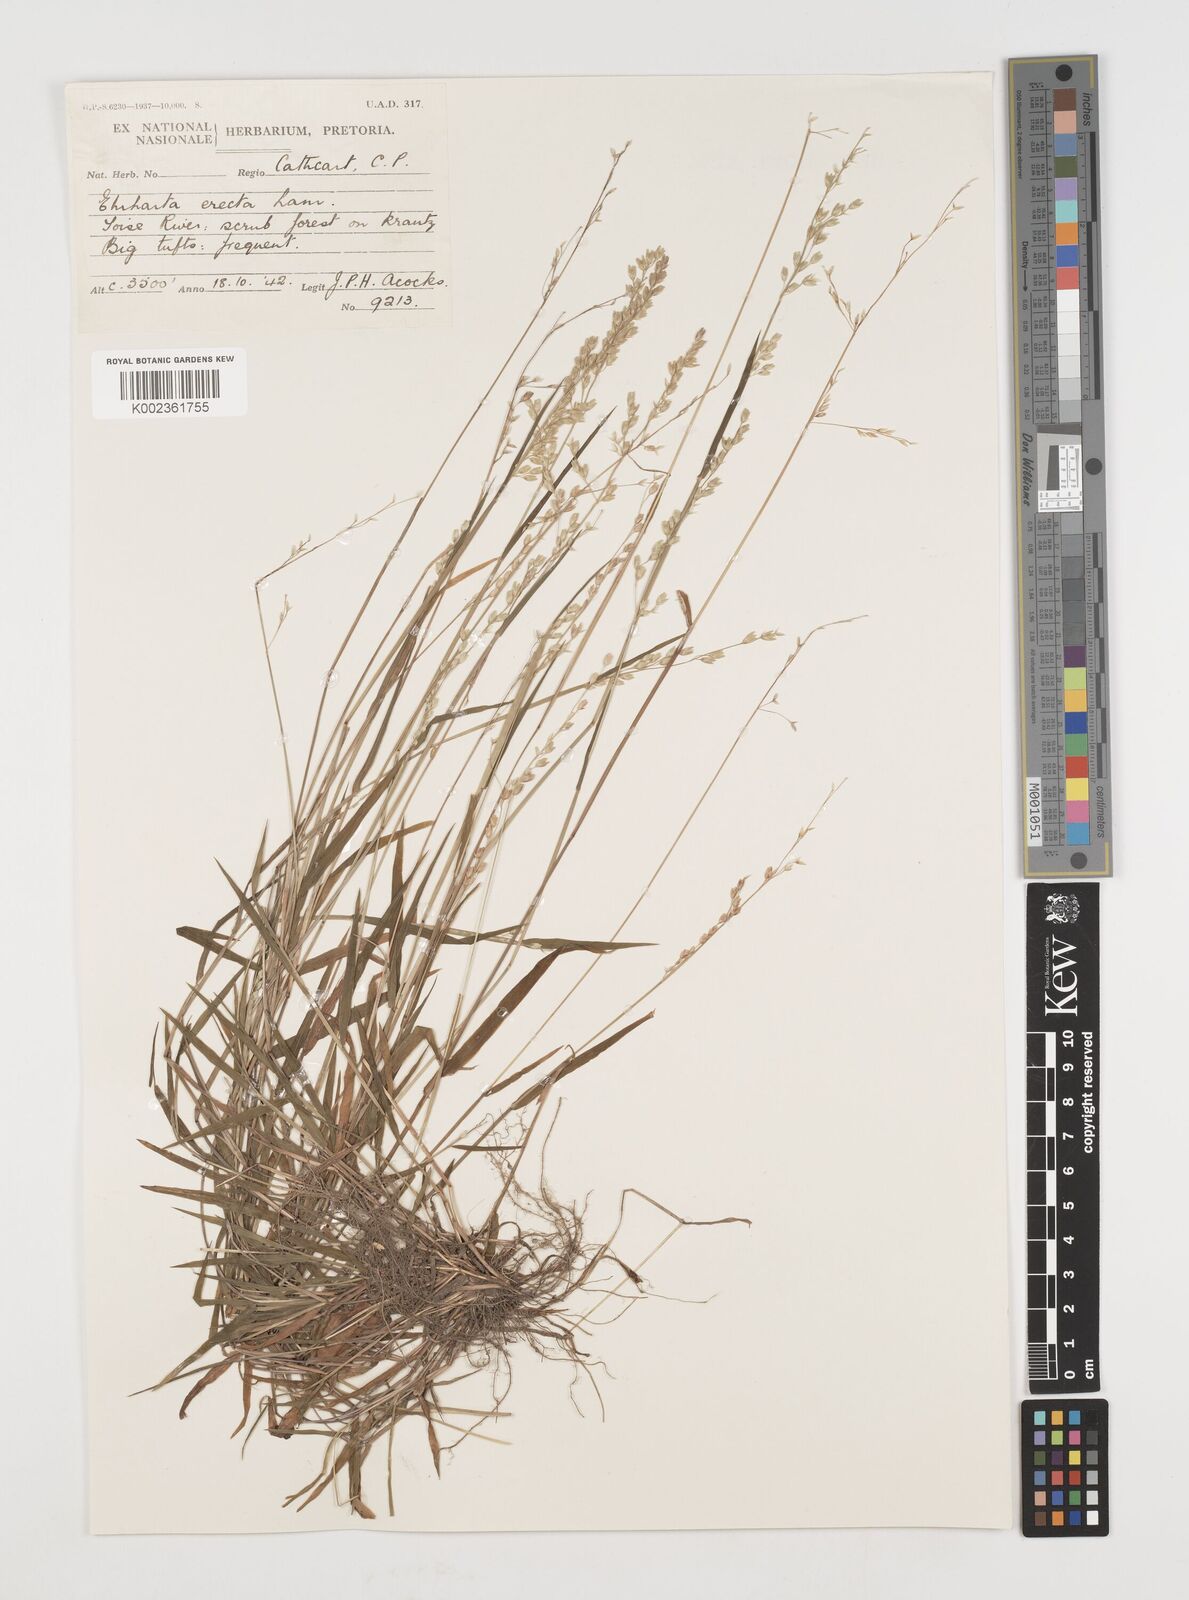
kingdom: Plantae
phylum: Tracheophyta
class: Liliopsida
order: Poales
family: Poaceae
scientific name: Poaceae
